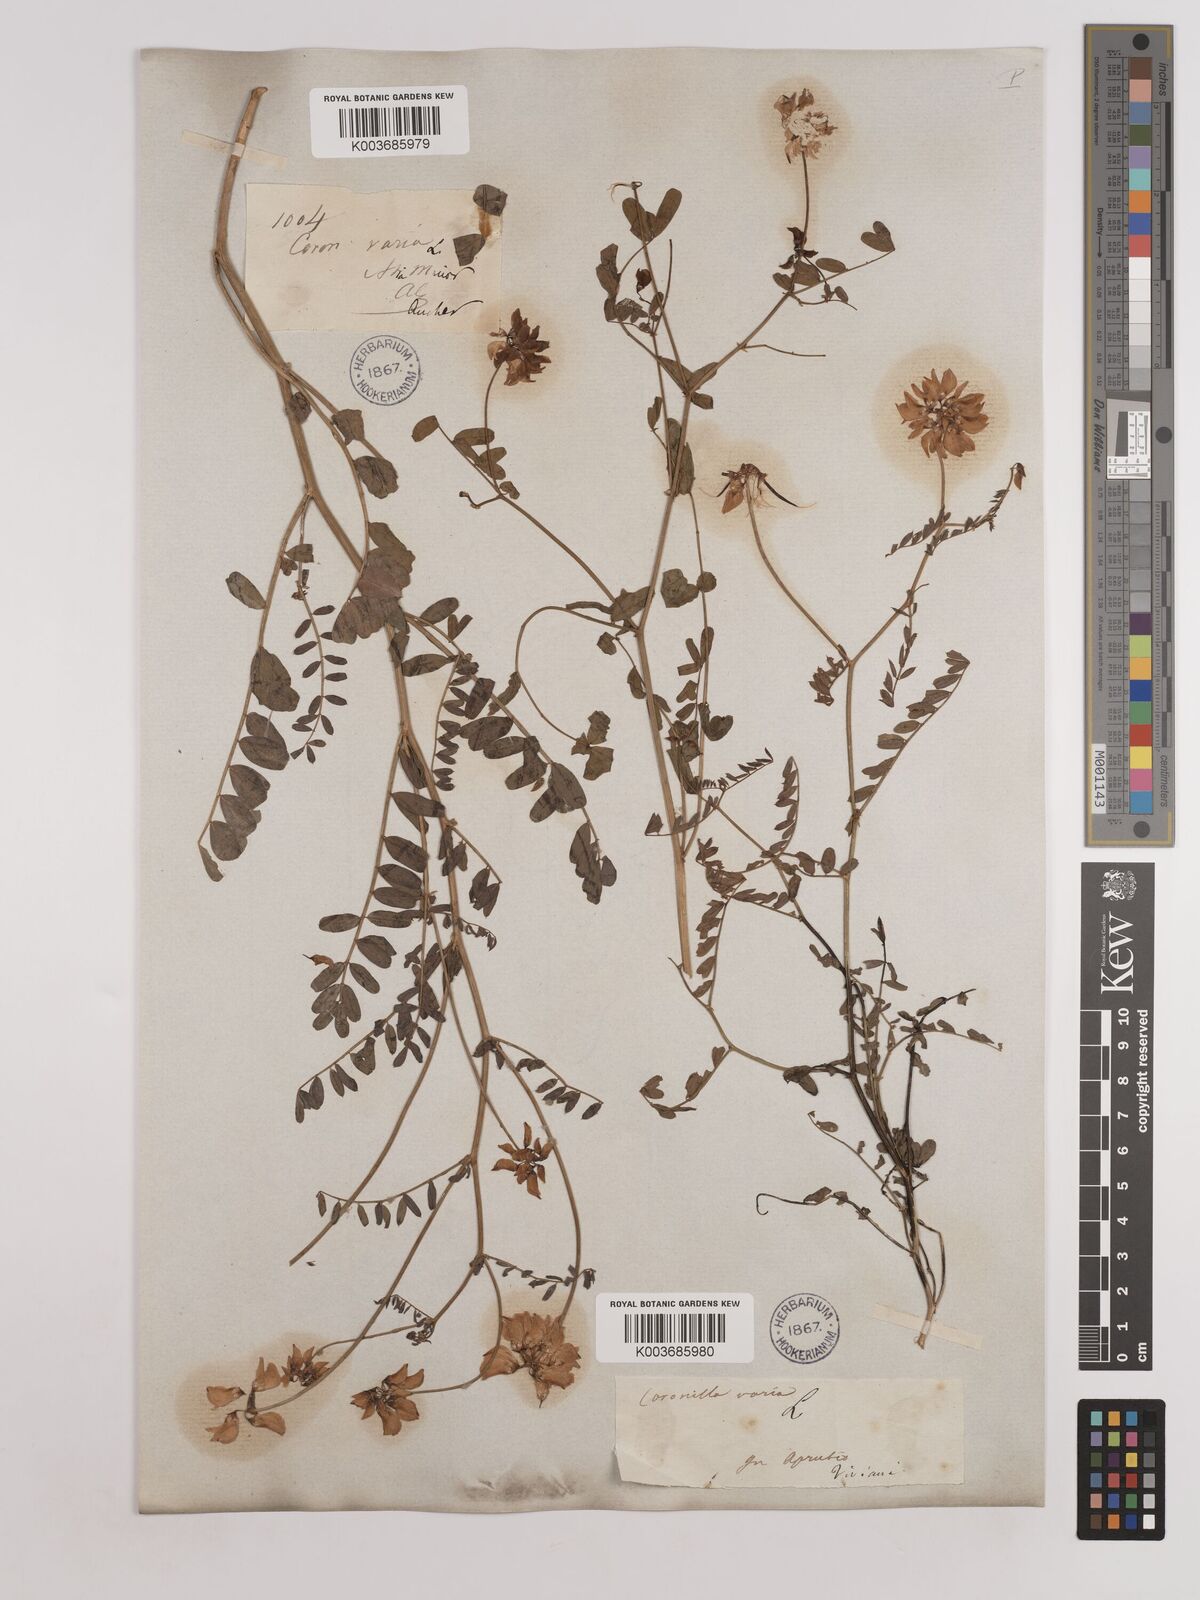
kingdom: Plantae
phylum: Tracheophyta
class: Magnoliopsida
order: Fabales
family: Fabaceae
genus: Coronilla
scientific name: Coronilla varia
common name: Crownvetch
